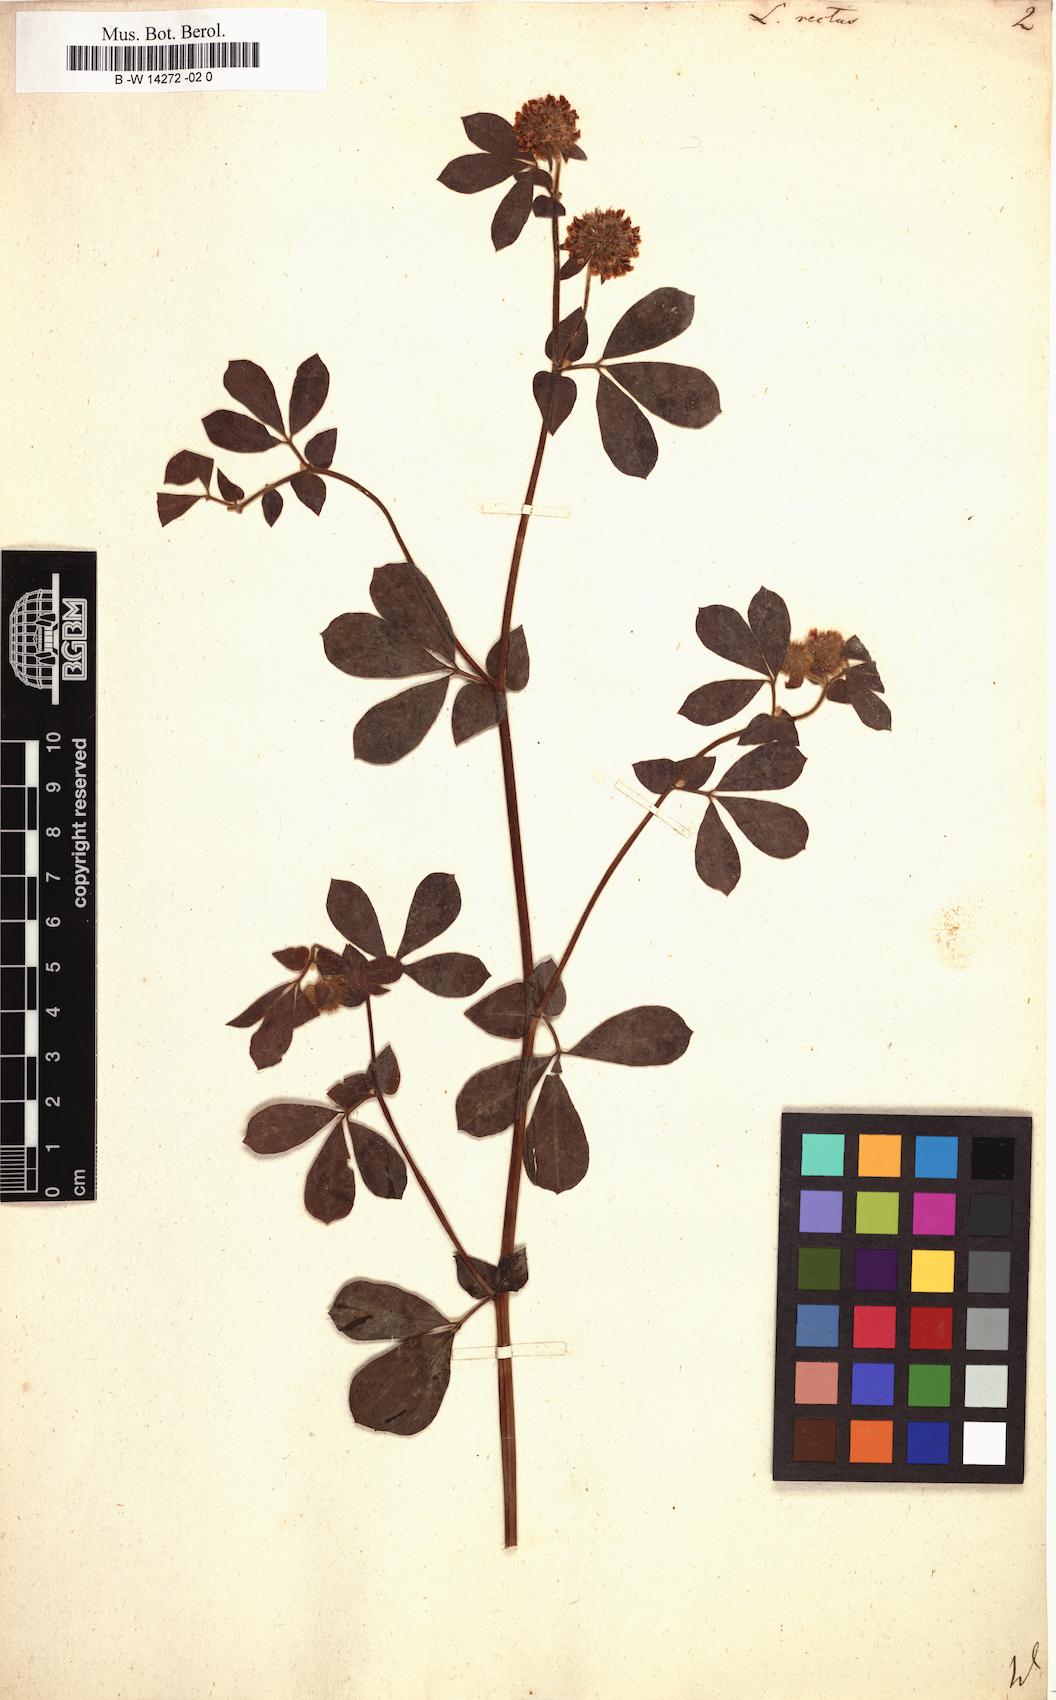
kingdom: Plantae
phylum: Tracheophyta
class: Magnoliopsida
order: Fabales
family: Fabaceae
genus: Lotus
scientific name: Lotus rectus
